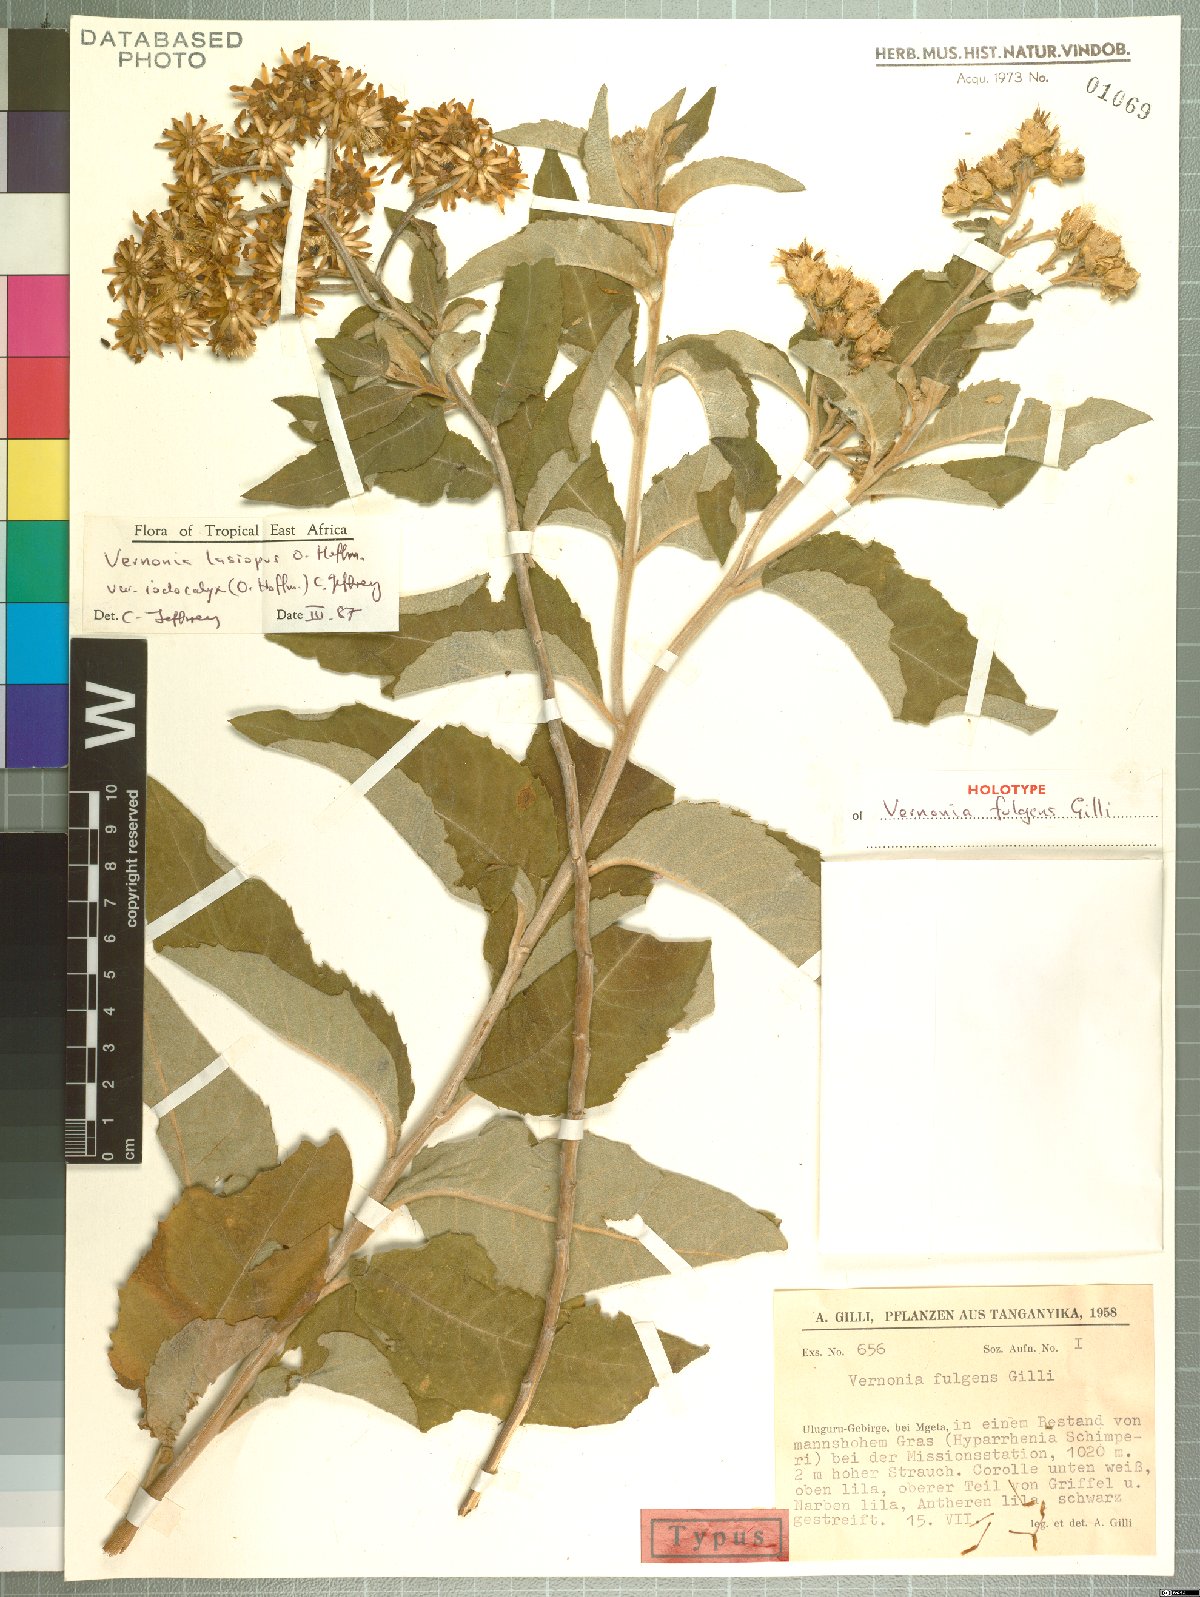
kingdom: Plantae
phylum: Tracheophyta
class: Magnoliopsida
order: Asterales
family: Asteraceae
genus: Baccharoides
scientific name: Baccharoides lasiopus
